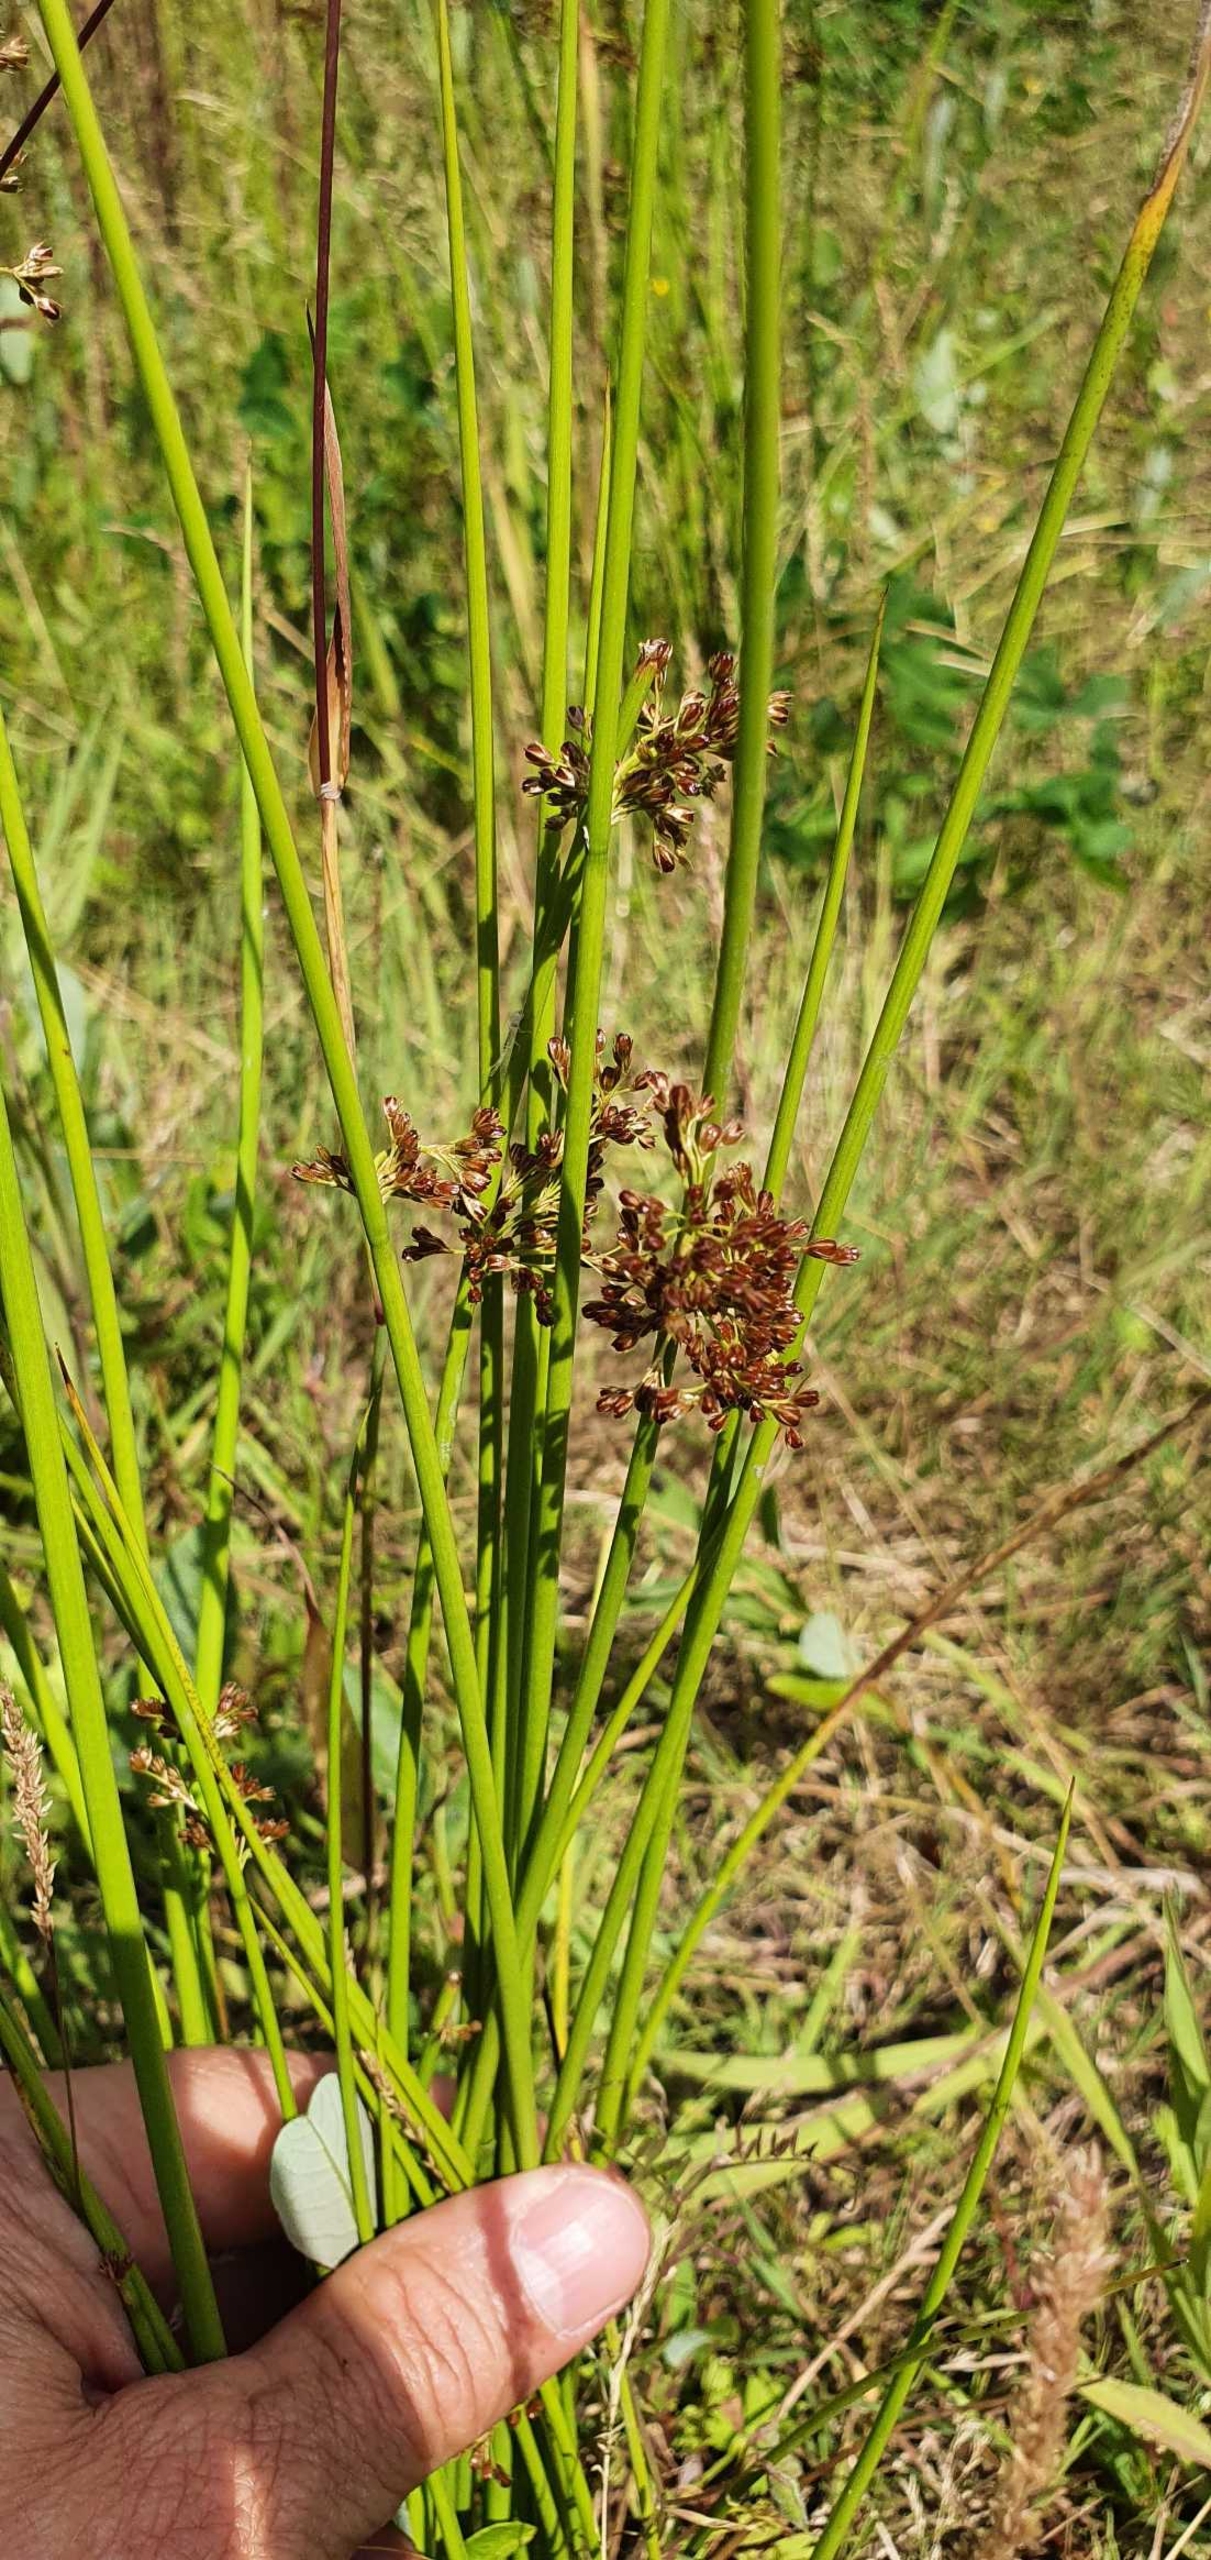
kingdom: Plantae
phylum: Tracheophyta
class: Liliopsida
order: Poales
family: Juncaceae
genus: Juncus
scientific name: Juncus effusus
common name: Lyse-siv
